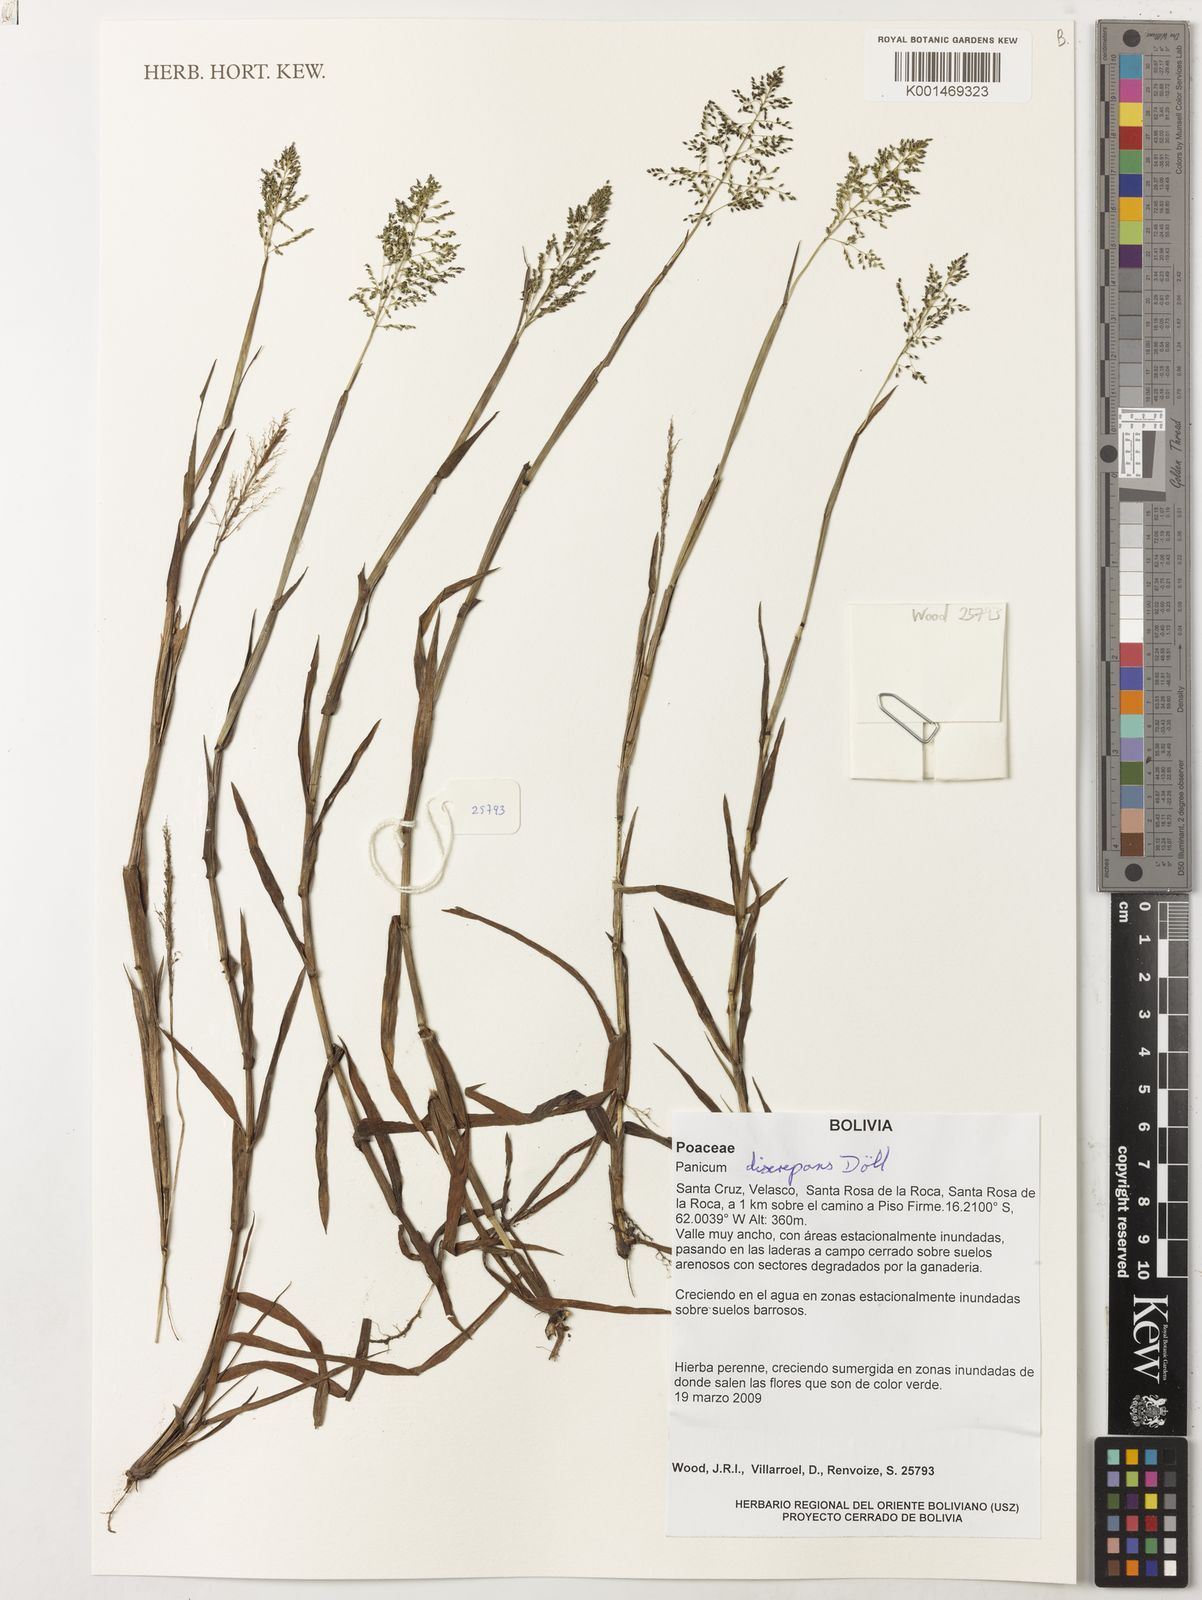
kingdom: Plantae
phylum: Tracheophyta
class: Liliopsida
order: Poales
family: Poaceae
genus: Panicum
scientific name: Panicum
